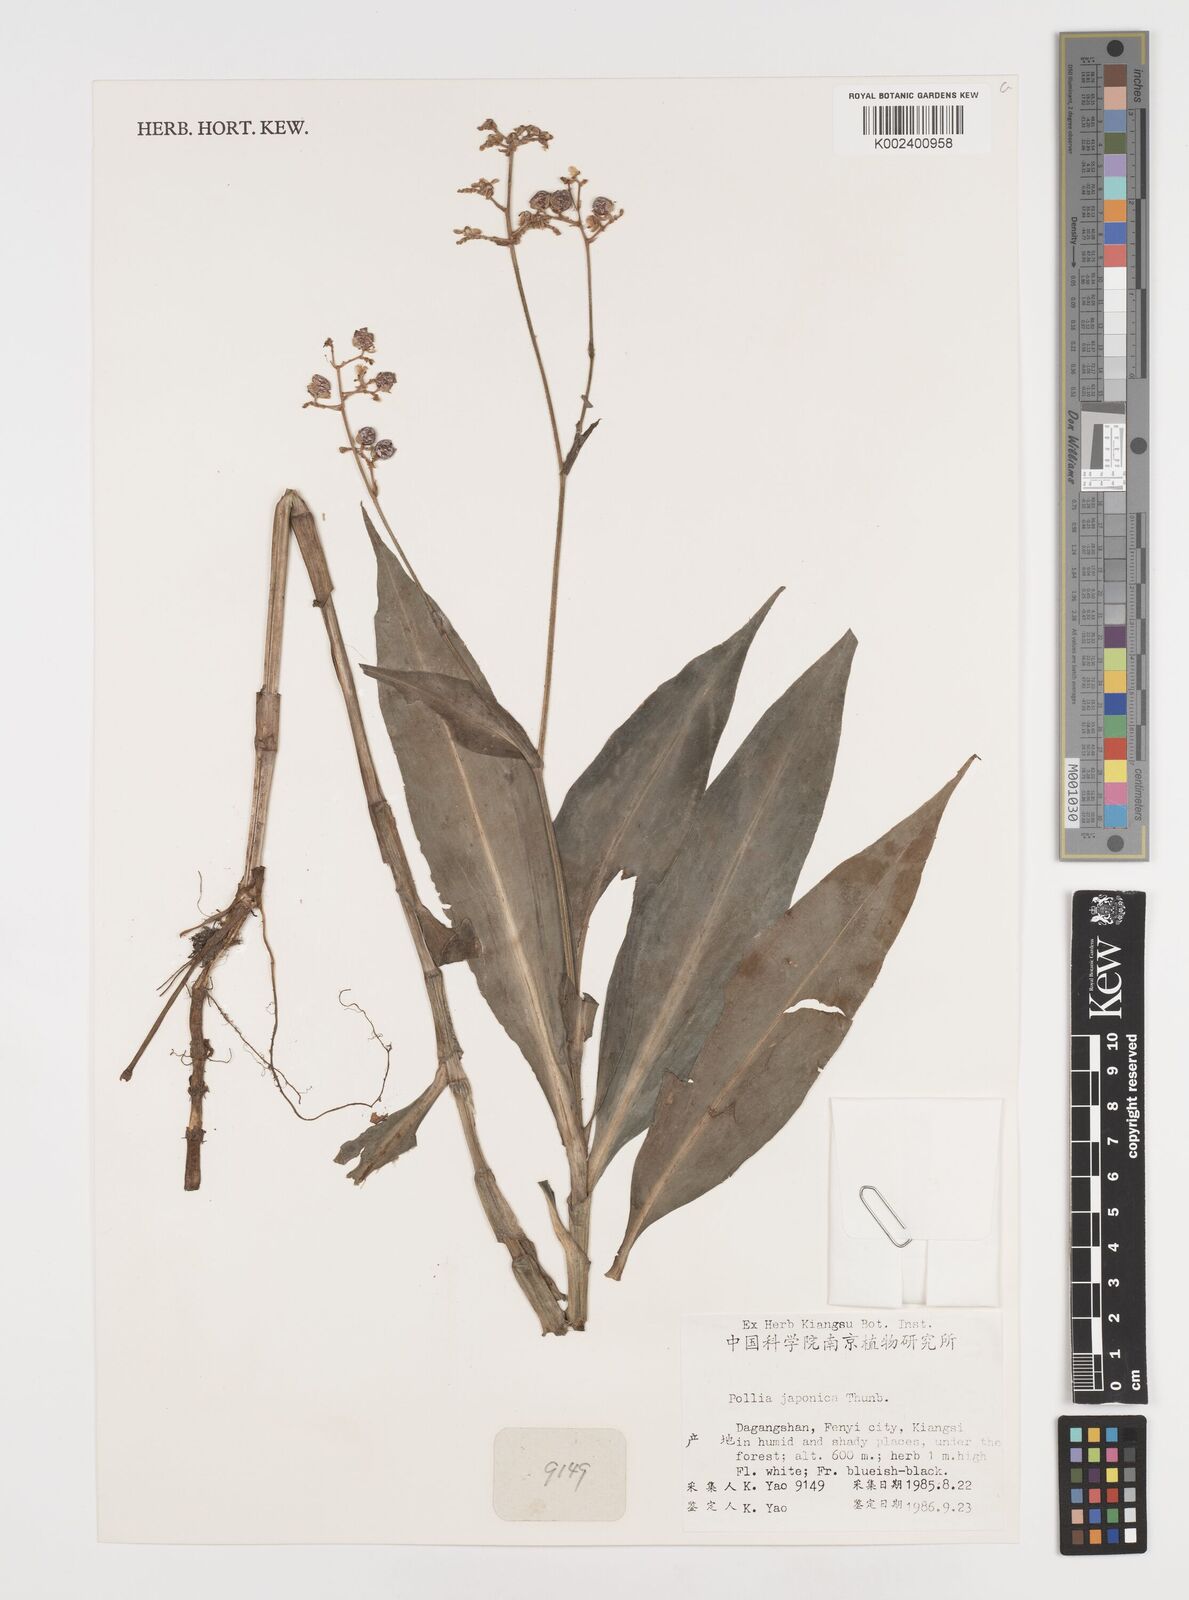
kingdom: Plantae
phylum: Tracheophyta
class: Liliopsida
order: Commelinales
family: Commelinaceae
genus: Pollia
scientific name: Pollia japonica
